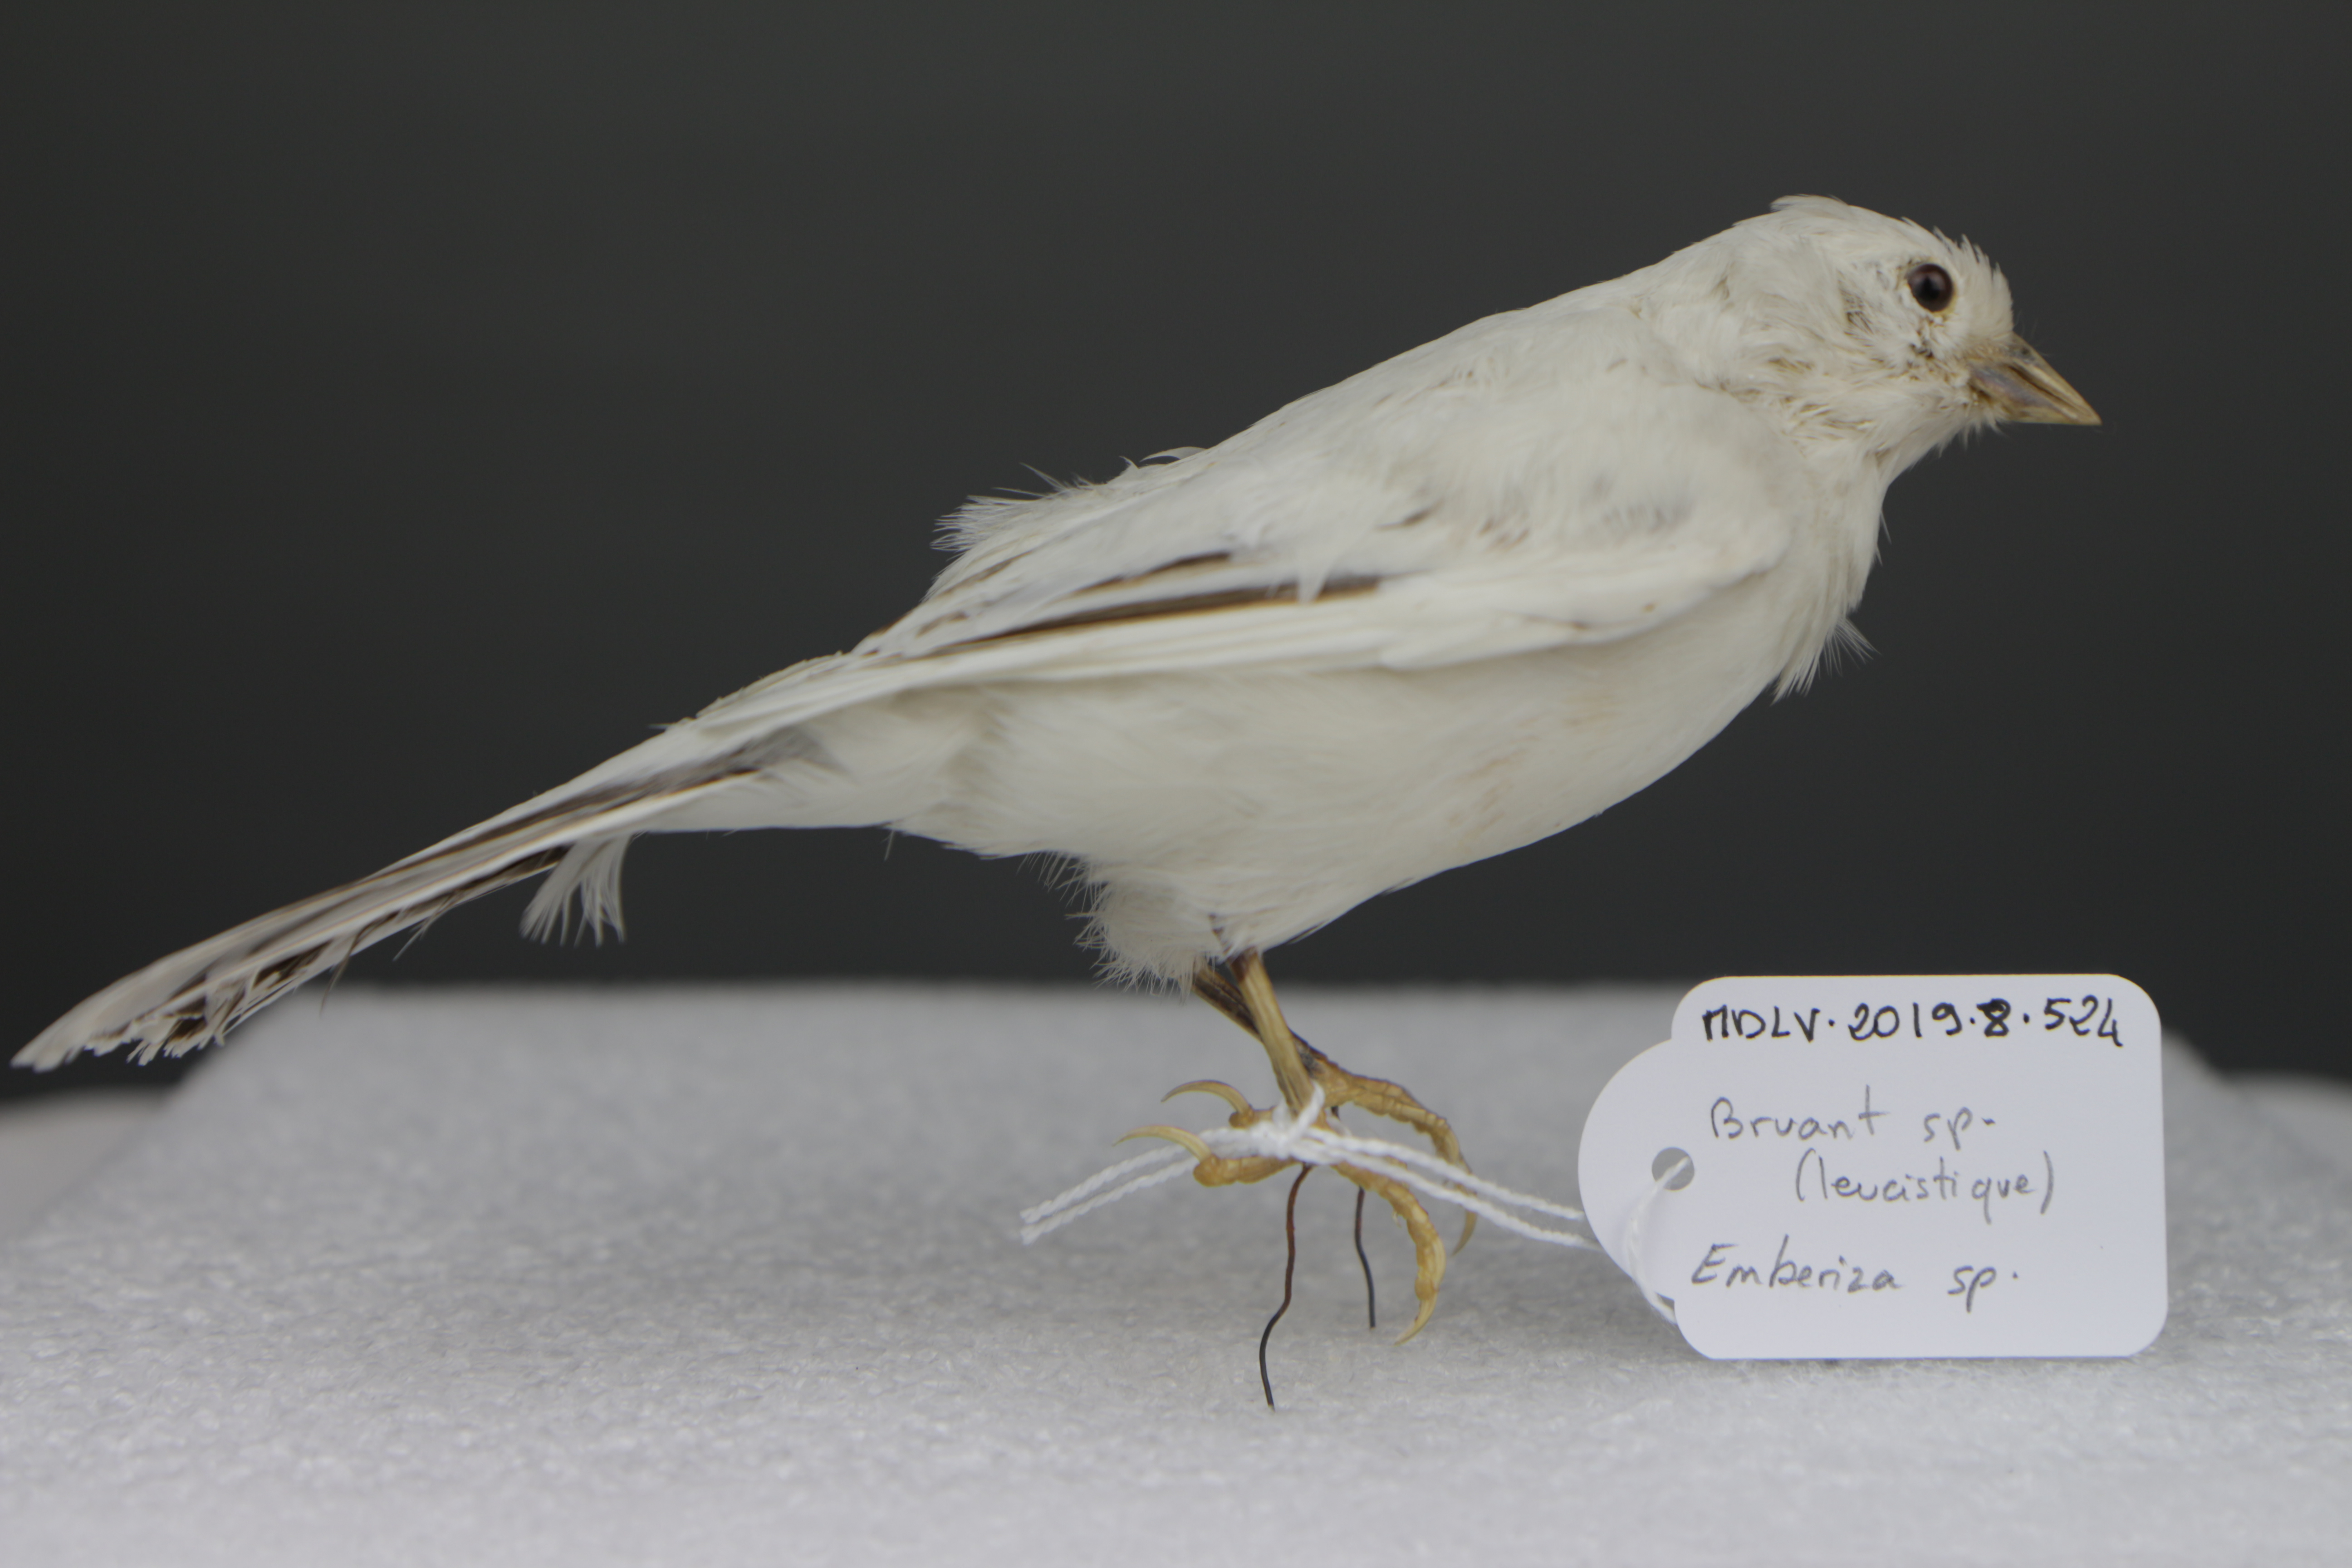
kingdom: Animalia
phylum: Chordata
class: Aves
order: Passeriformes
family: Emberizidae
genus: Emberiza
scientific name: Emberiza
